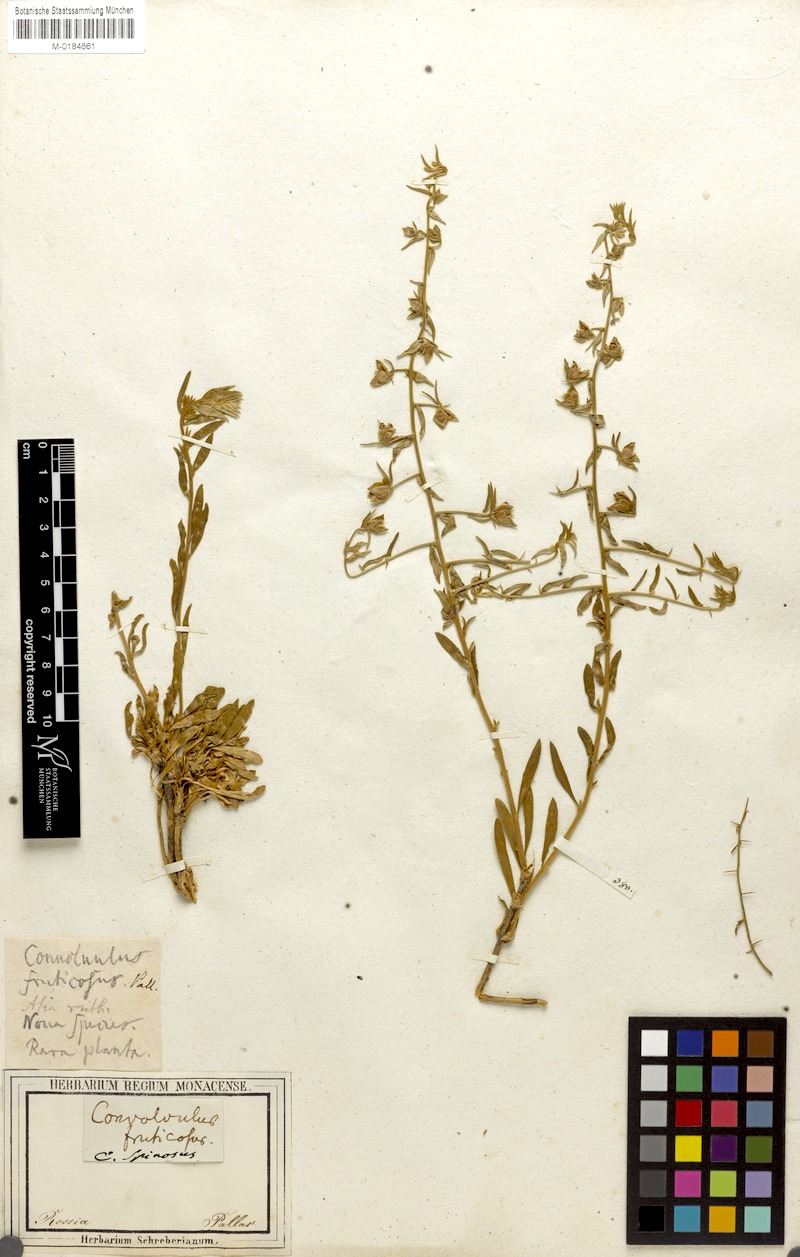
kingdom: Plantae
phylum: Tracheophyta
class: Magnoliopsida
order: Solanales
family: Convolvulaceae
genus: Convolvulus
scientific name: Convolvulus fruticosus
